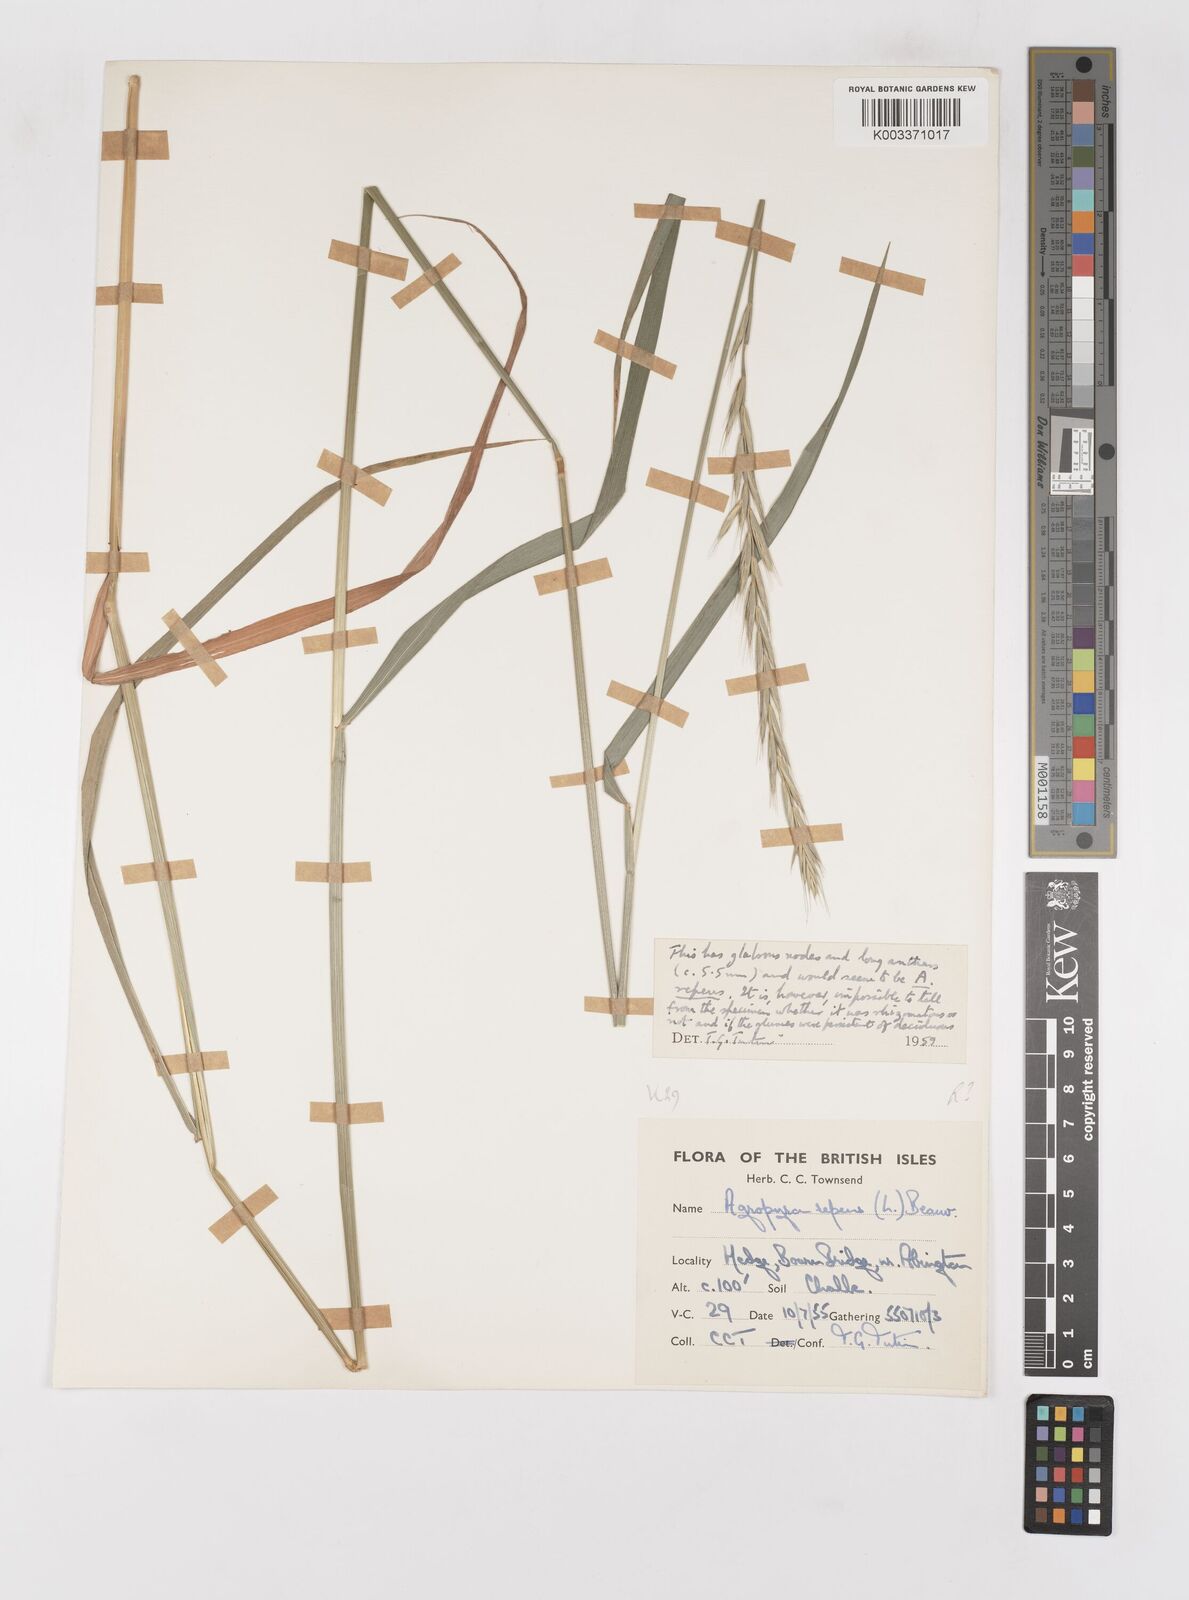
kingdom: Plantae
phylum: Tracheophyta
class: Liliopsida
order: Poales
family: Poaceae
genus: Elymus
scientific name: Elymus repens
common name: Quackgrass
